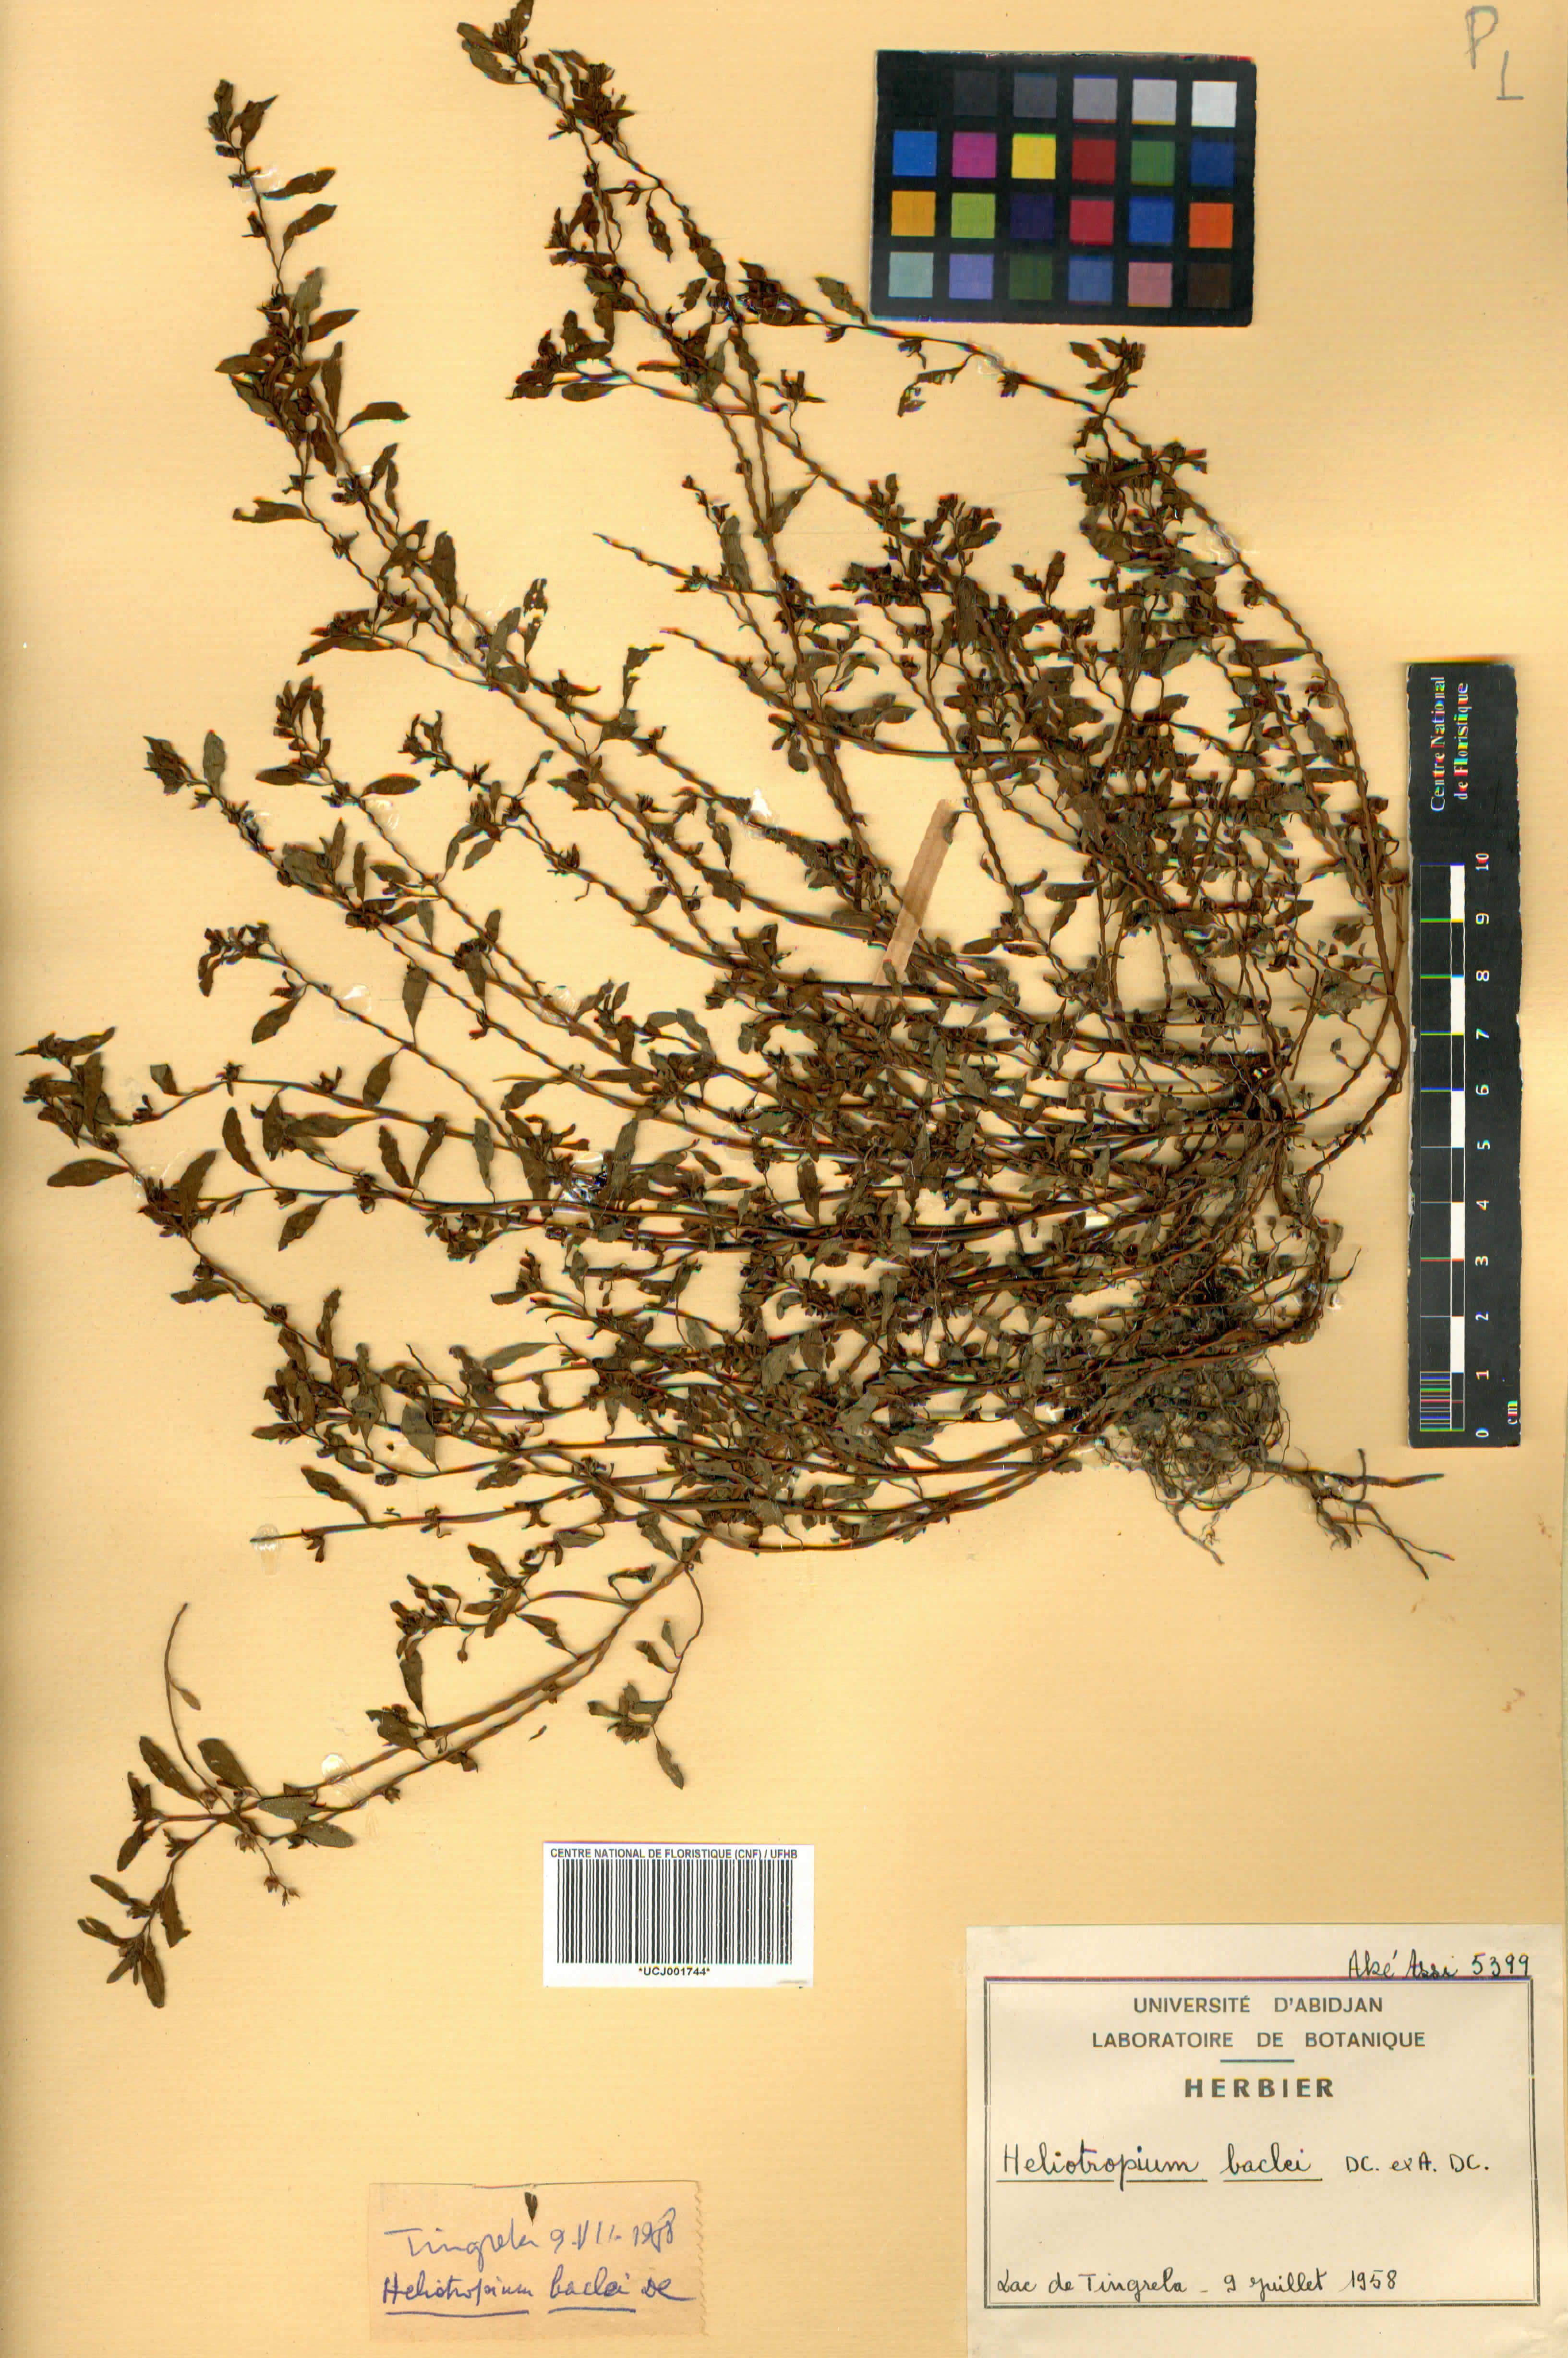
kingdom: Plantae
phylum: Tracheophyta
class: Magnoliopsida
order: Boraginales
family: Heliotropiaceae
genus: Euploca
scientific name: Euploca baclei
